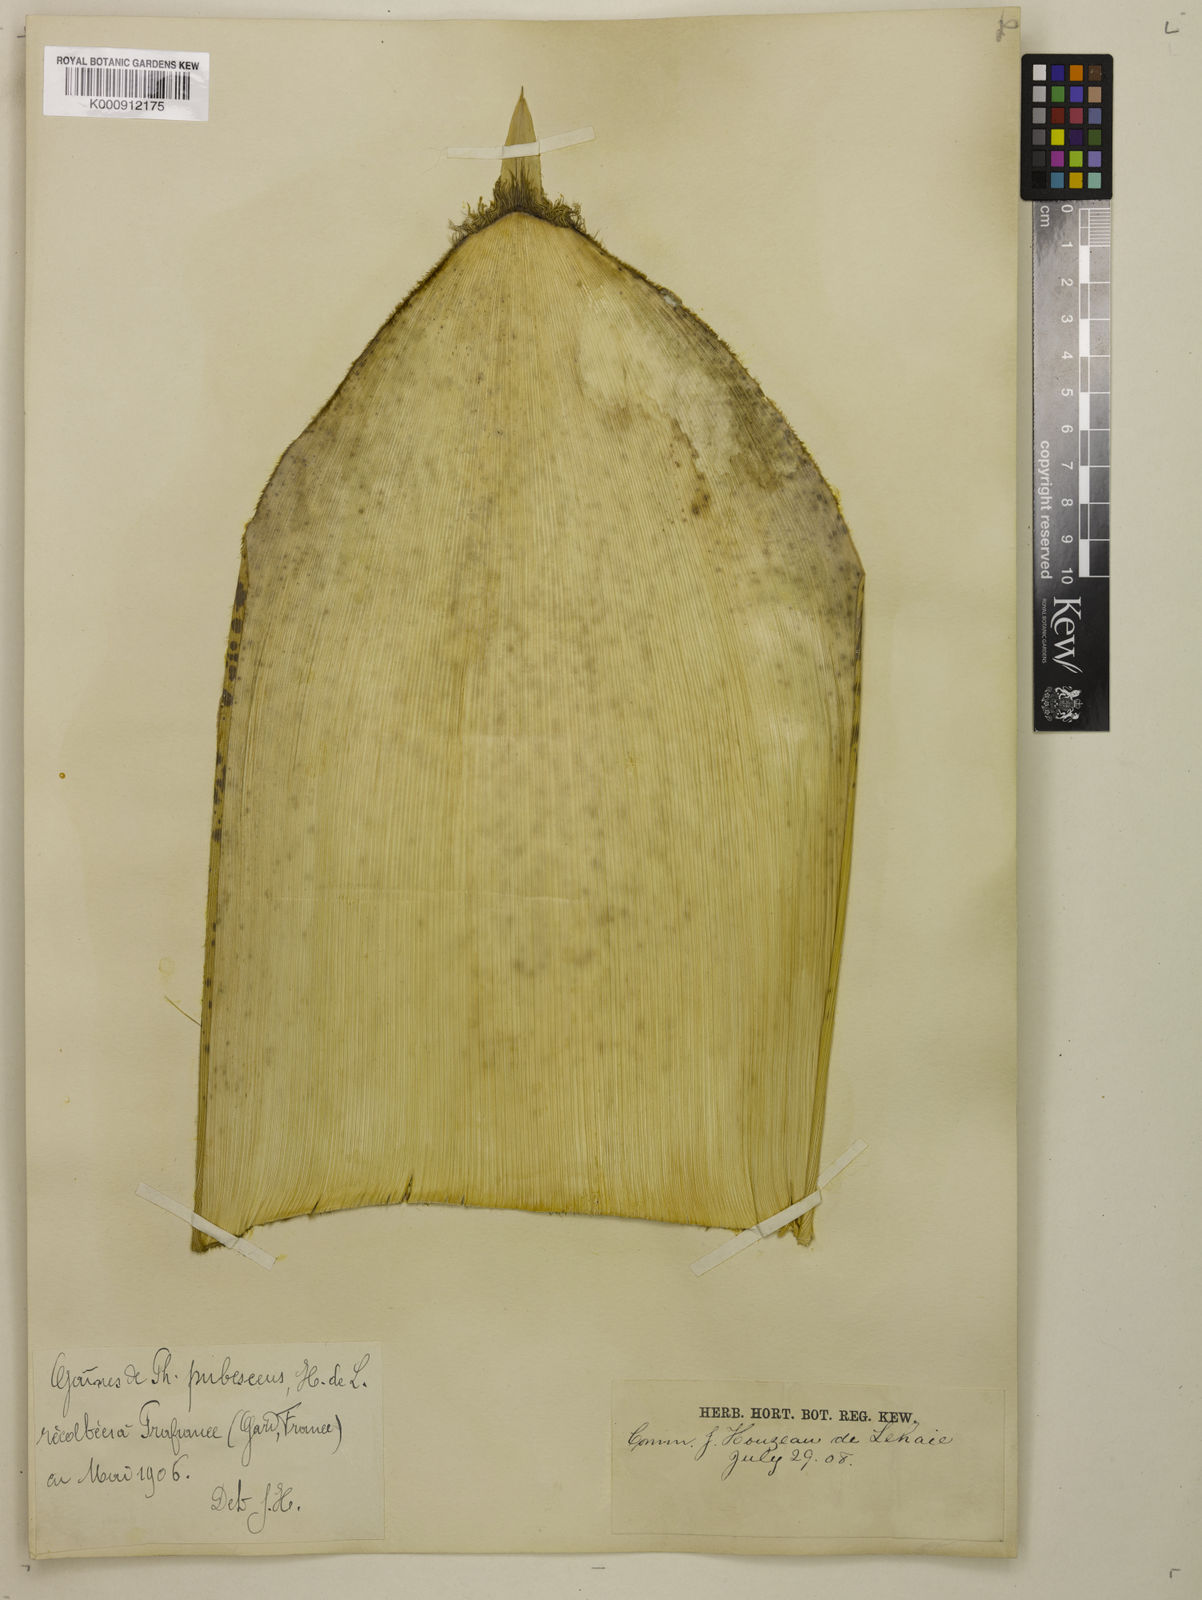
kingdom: Plantae
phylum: Tracheophyta
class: Liliopsida
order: Poales
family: Poaceae
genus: Phyllostachys
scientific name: Phyllostachys
